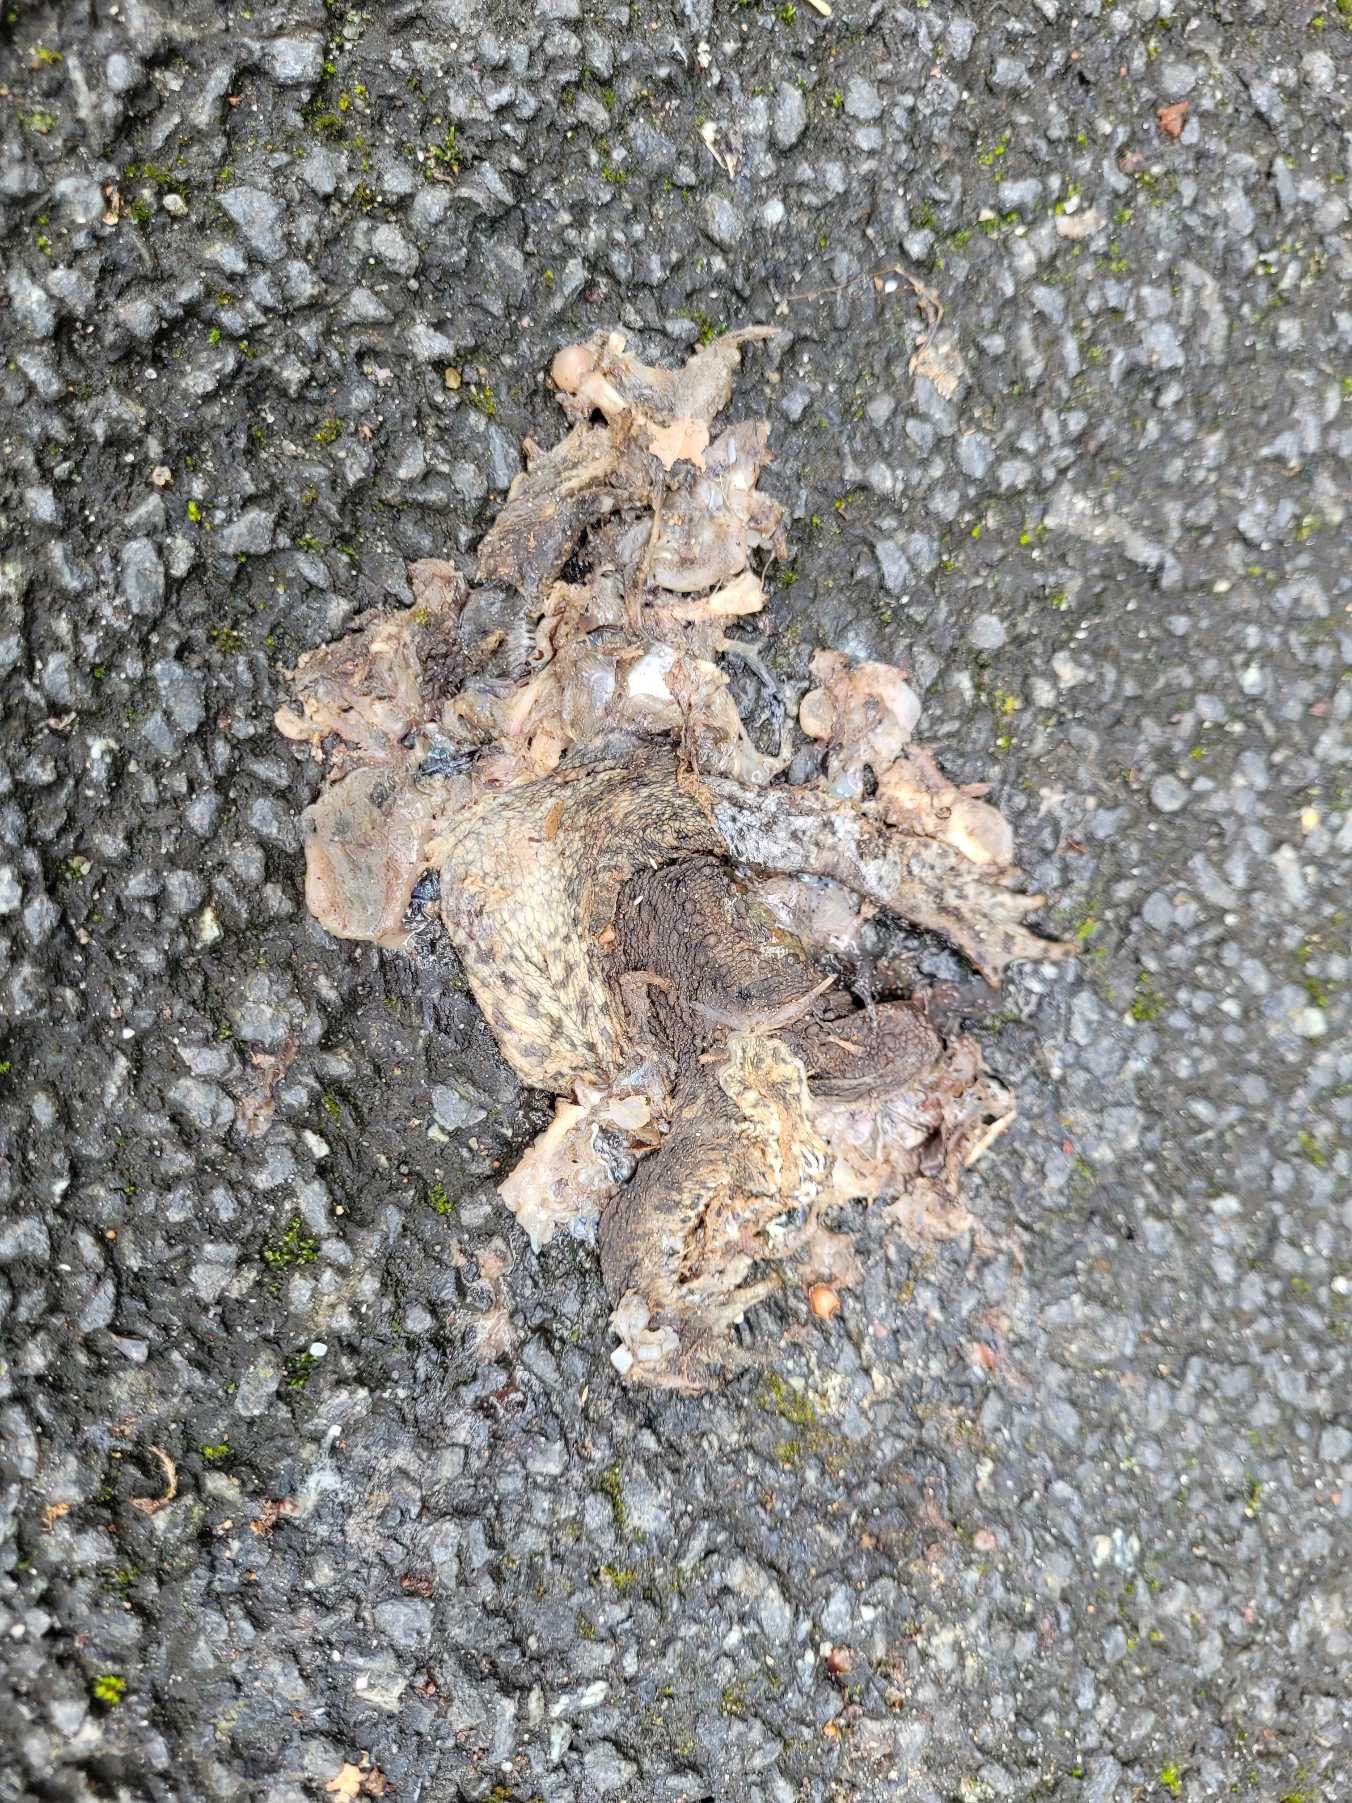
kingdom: Animalia
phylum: Chordata
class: Amphibia
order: Anura
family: Bufonidae
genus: Bufo
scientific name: Bufo bufo
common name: Skrubtudse
